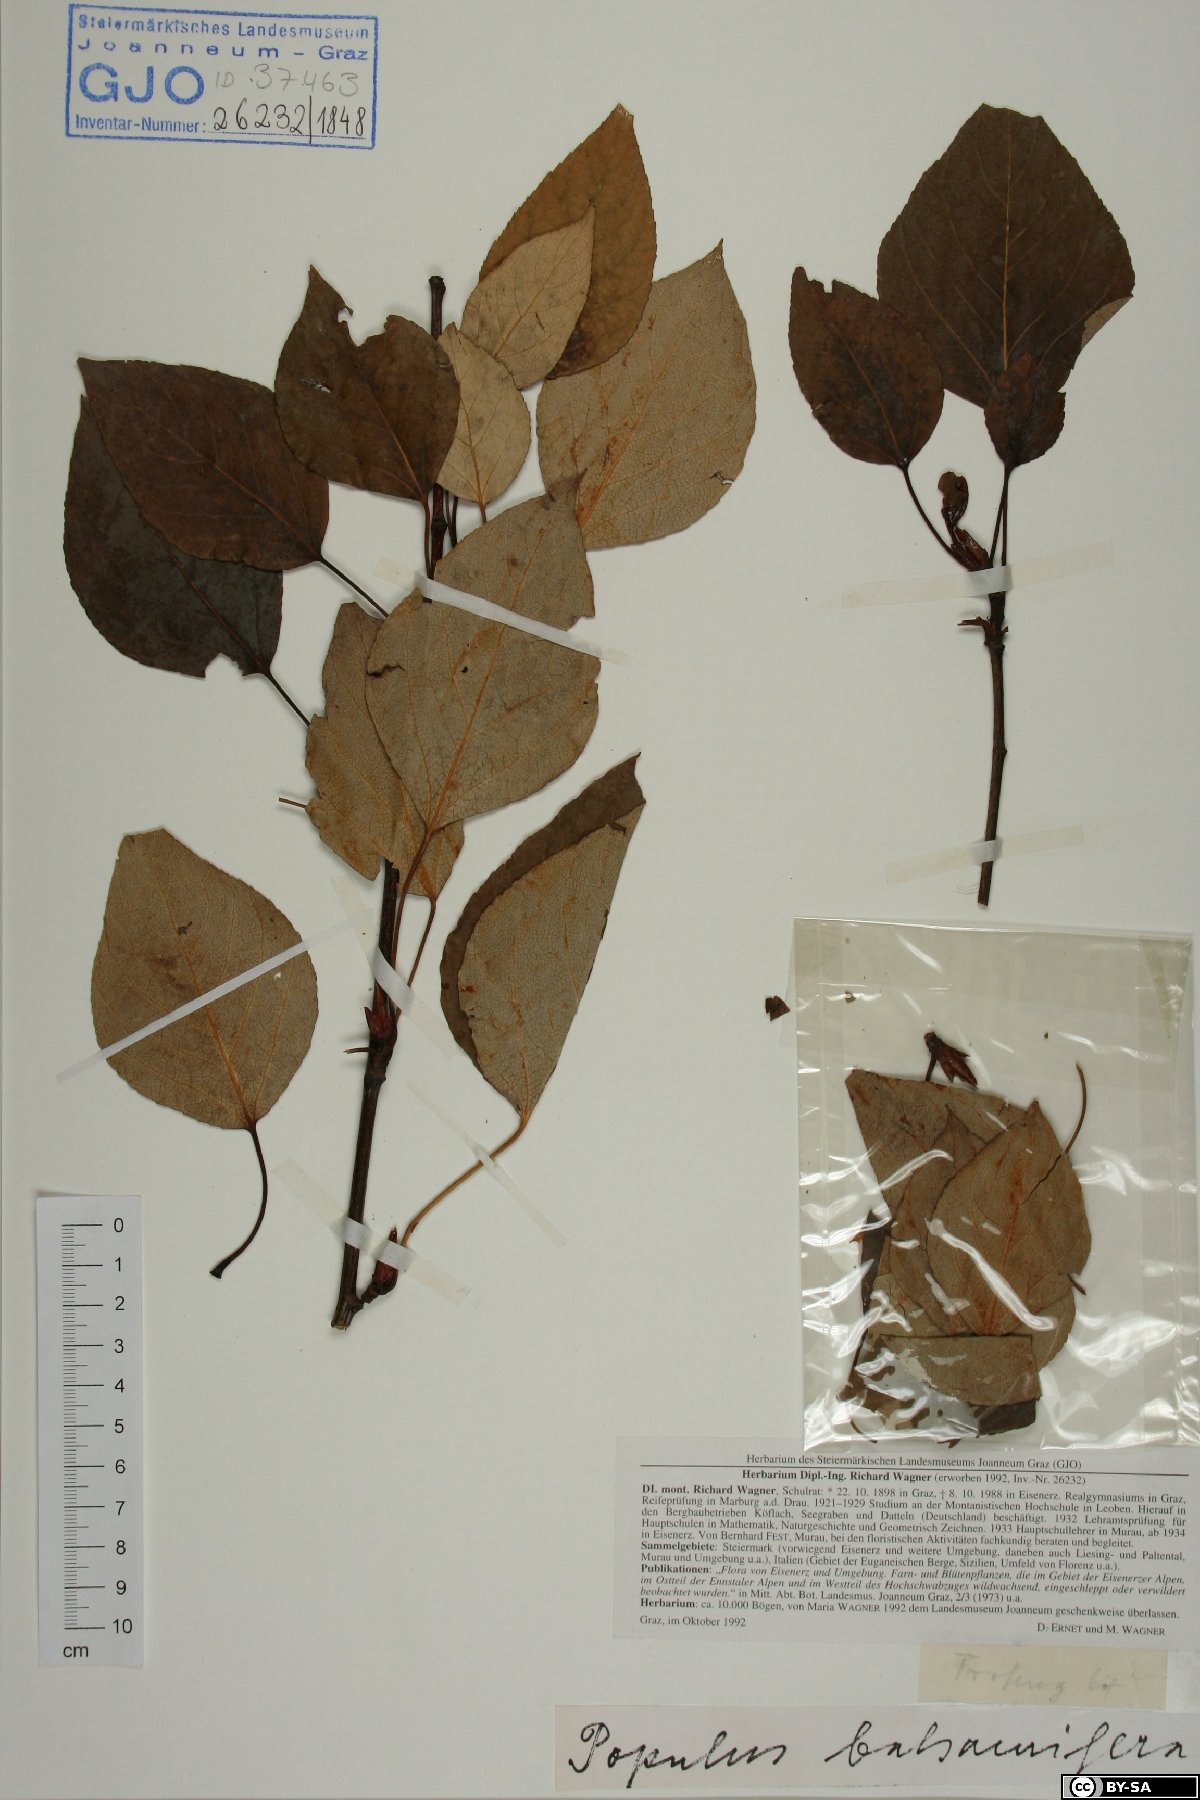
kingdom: Plantae
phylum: Tracheophyta
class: Magnoliopsida
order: Malpighiales
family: Salicaceae
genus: Populus
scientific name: Populus balsamifera
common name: Balsam poplar
